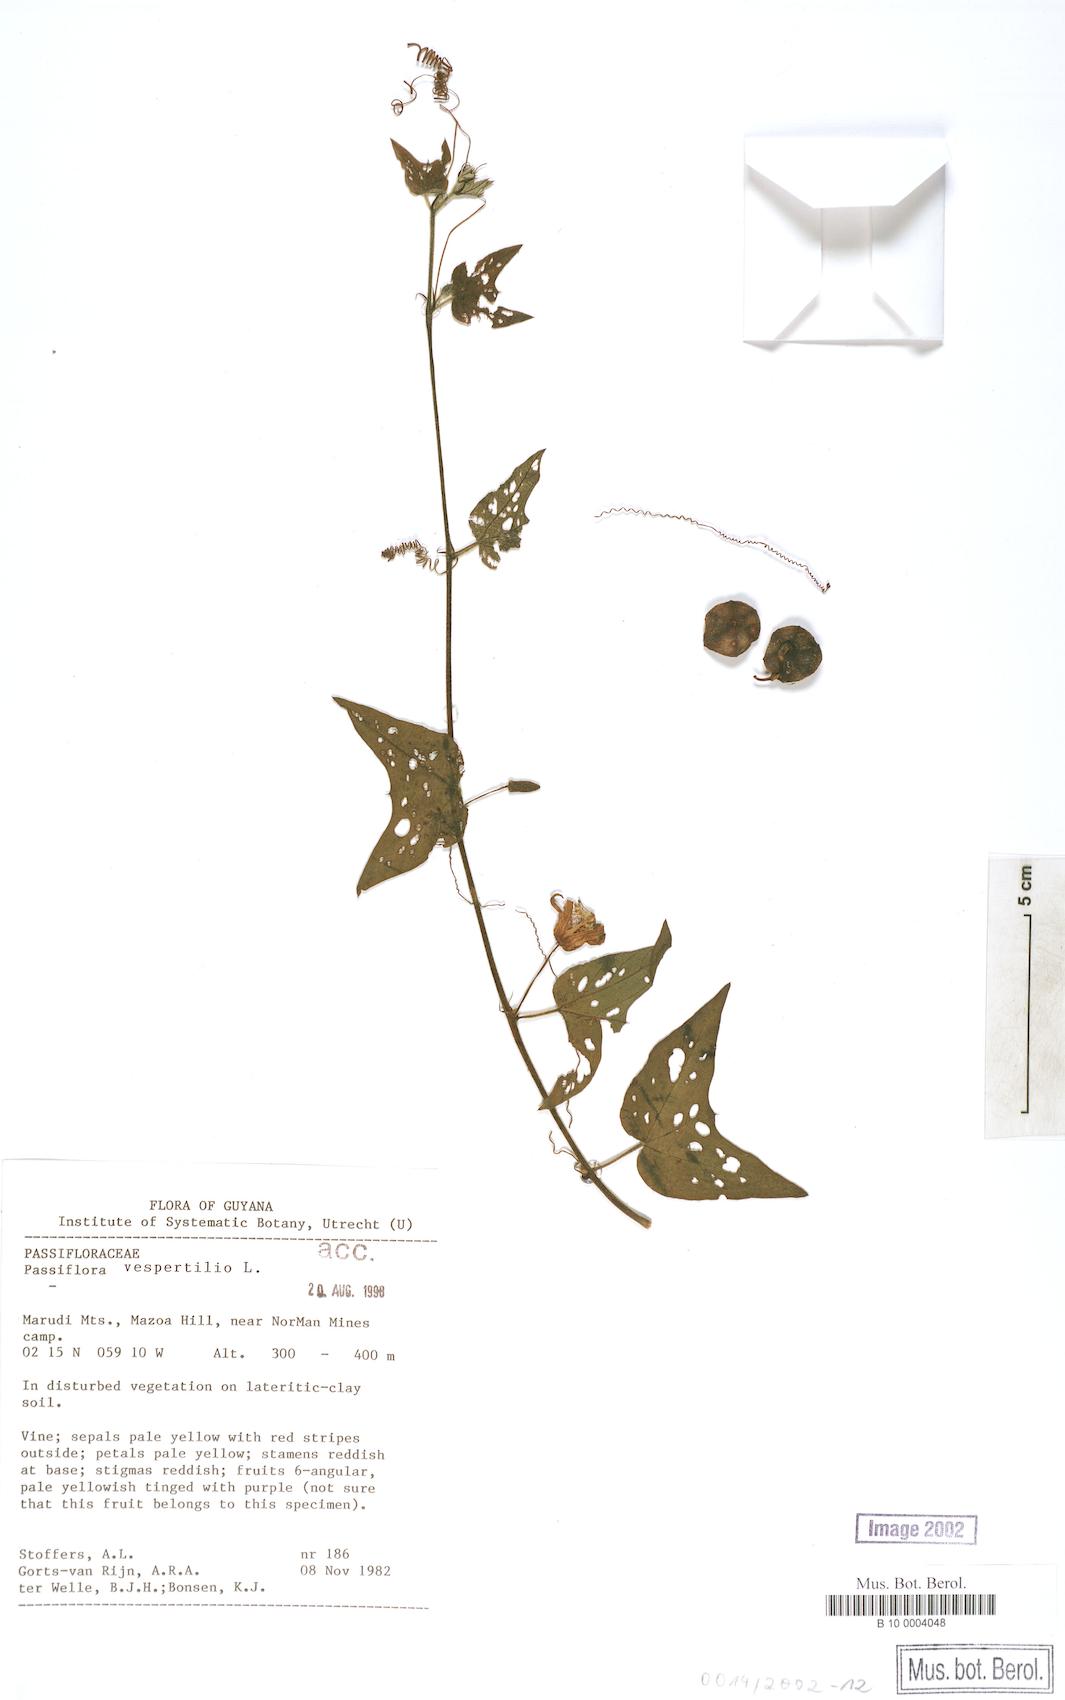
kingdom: Plantae
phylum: Tracheophyta
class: Magnoliopsida
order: Malpighiales
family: Passifloraceae
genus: Passiflora
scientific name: Passiflora cisnana
